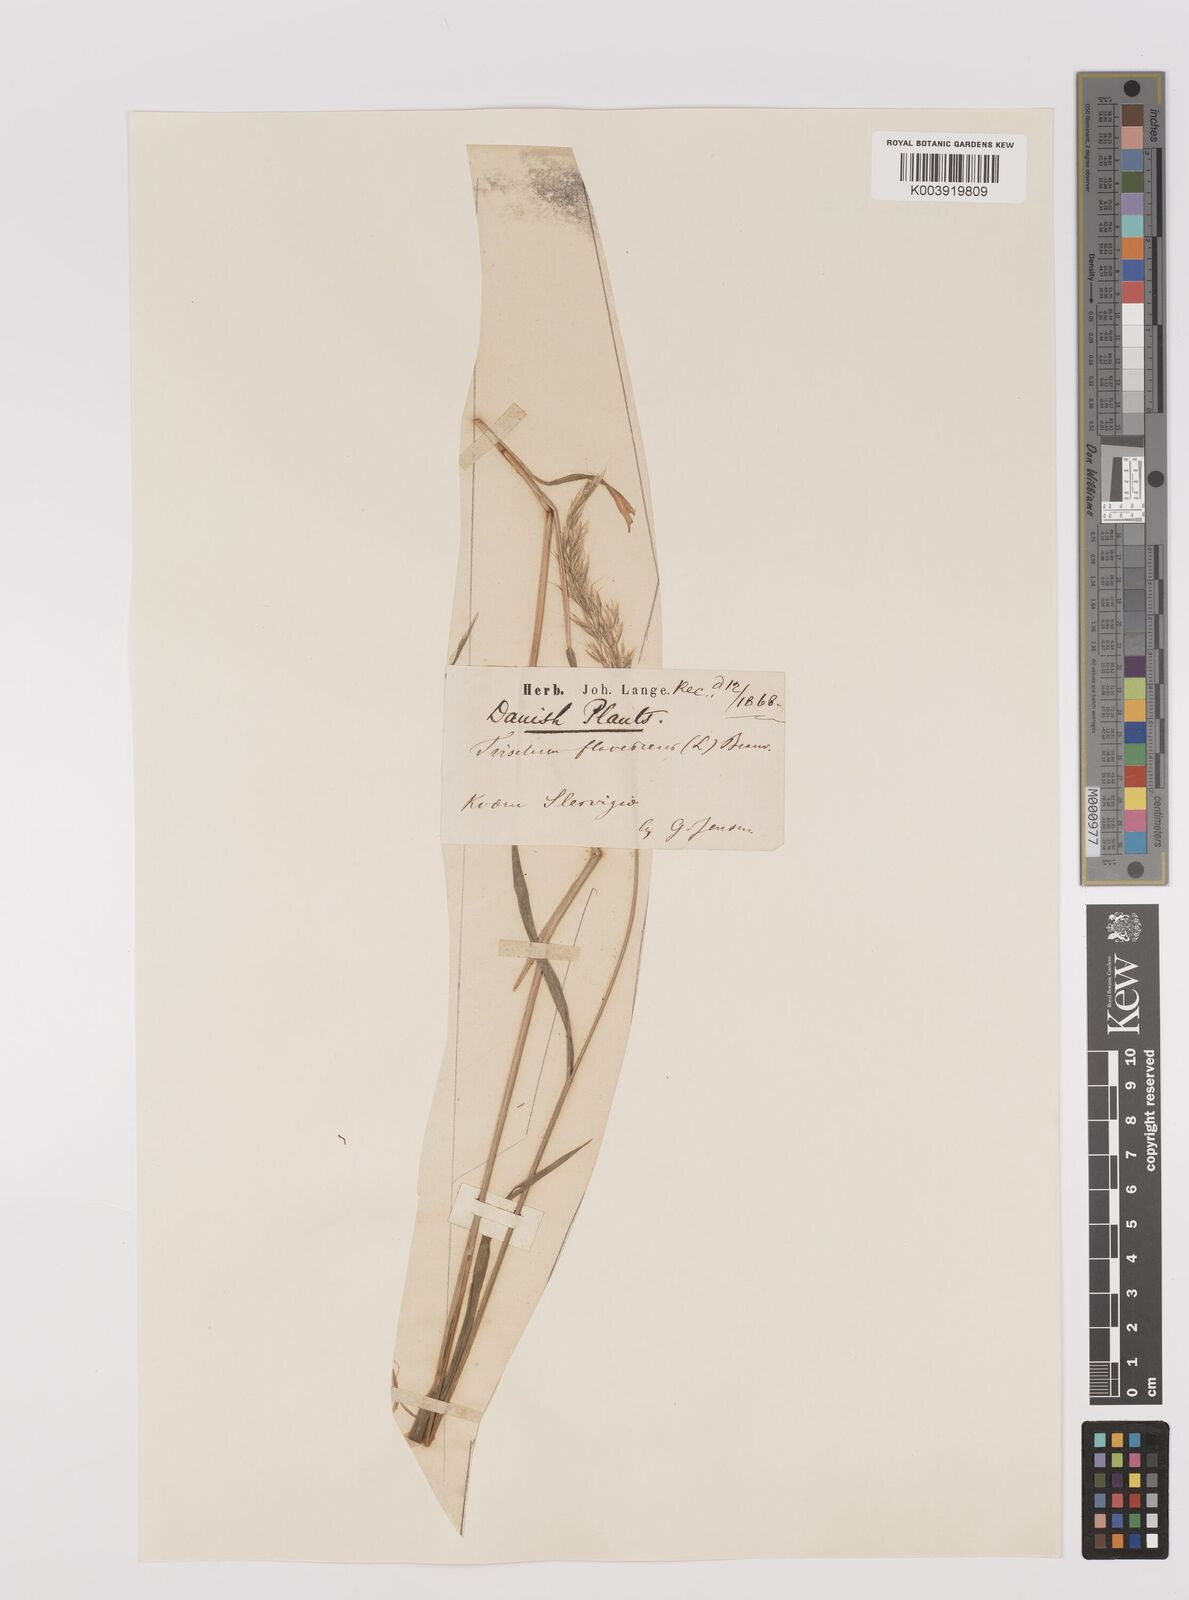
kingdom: Plantae
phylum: Tracheophyta
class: Liliopsida
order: Poales
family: Poaceae
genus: Trisetum
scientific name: Trisetum flavescens
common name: Yellow oat-grass
